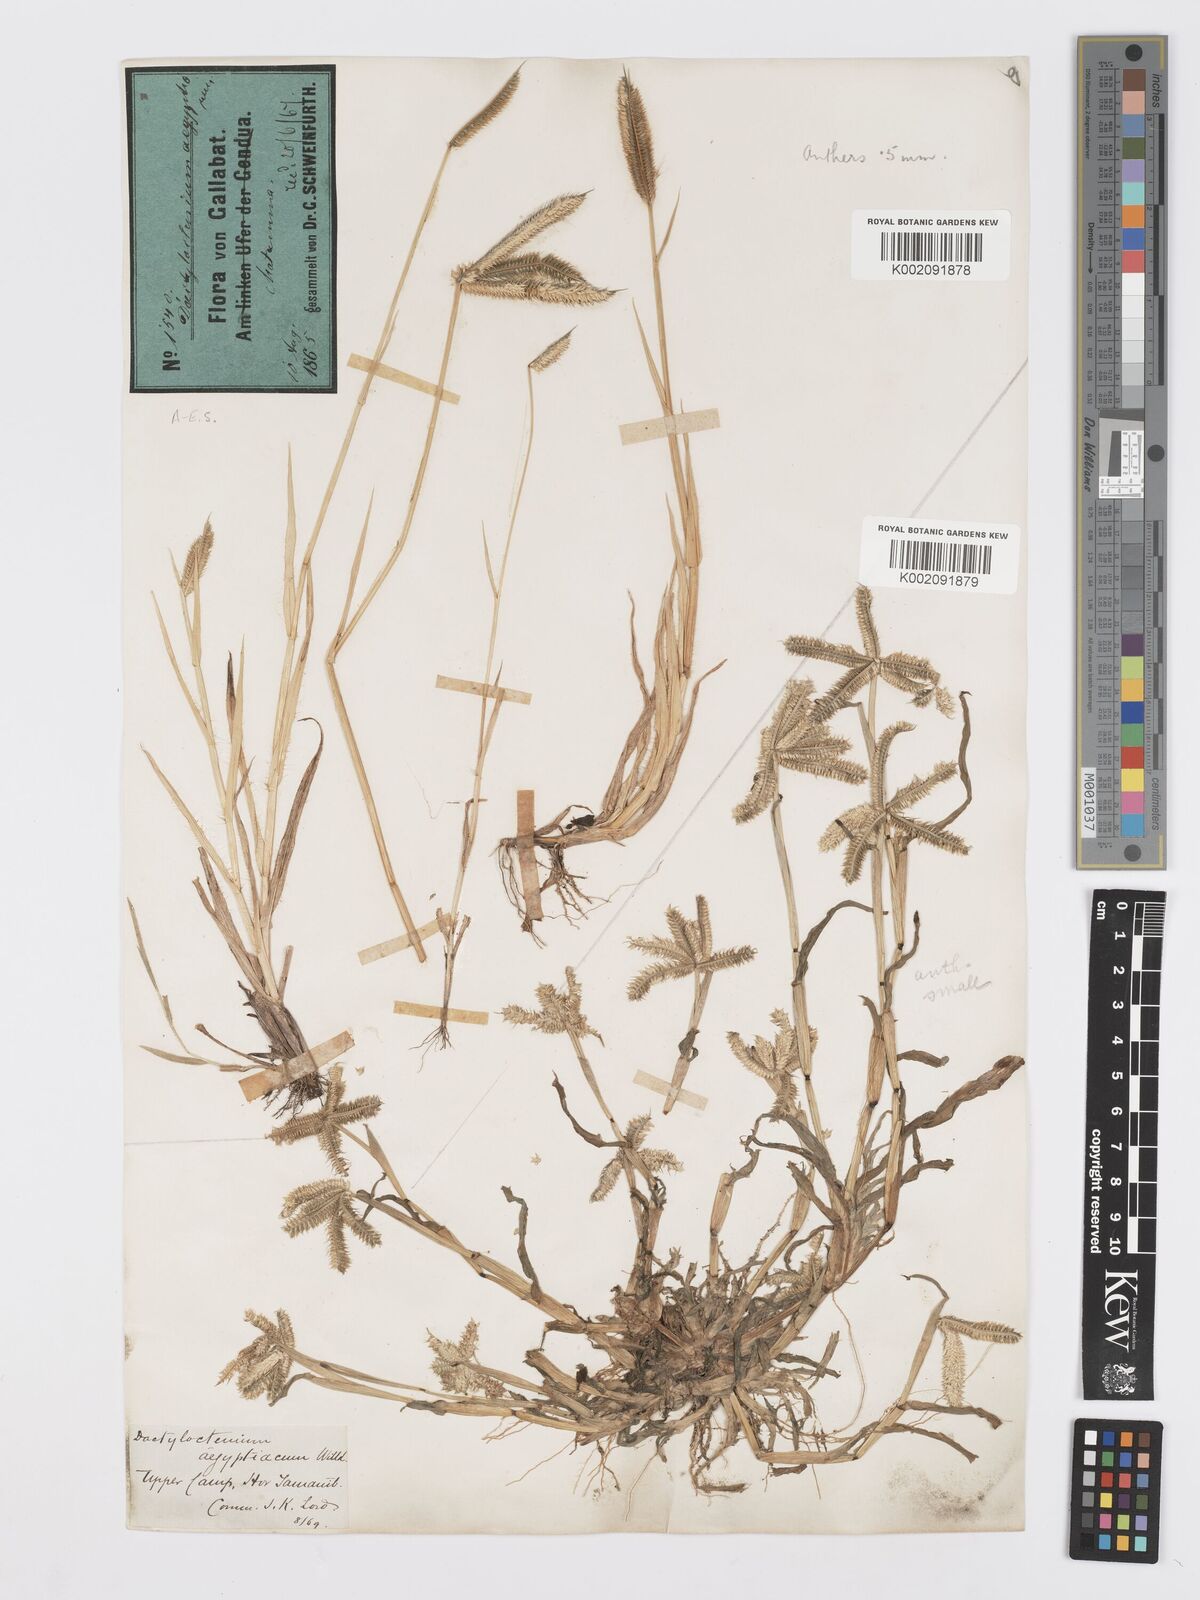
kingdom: Plantae
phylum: Tracheophyta
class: Liliopsida
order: Poales
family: Poaceae
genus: Dactyloctenium
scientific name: Dactyloctenium aegyptium
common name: Egyptian grass
